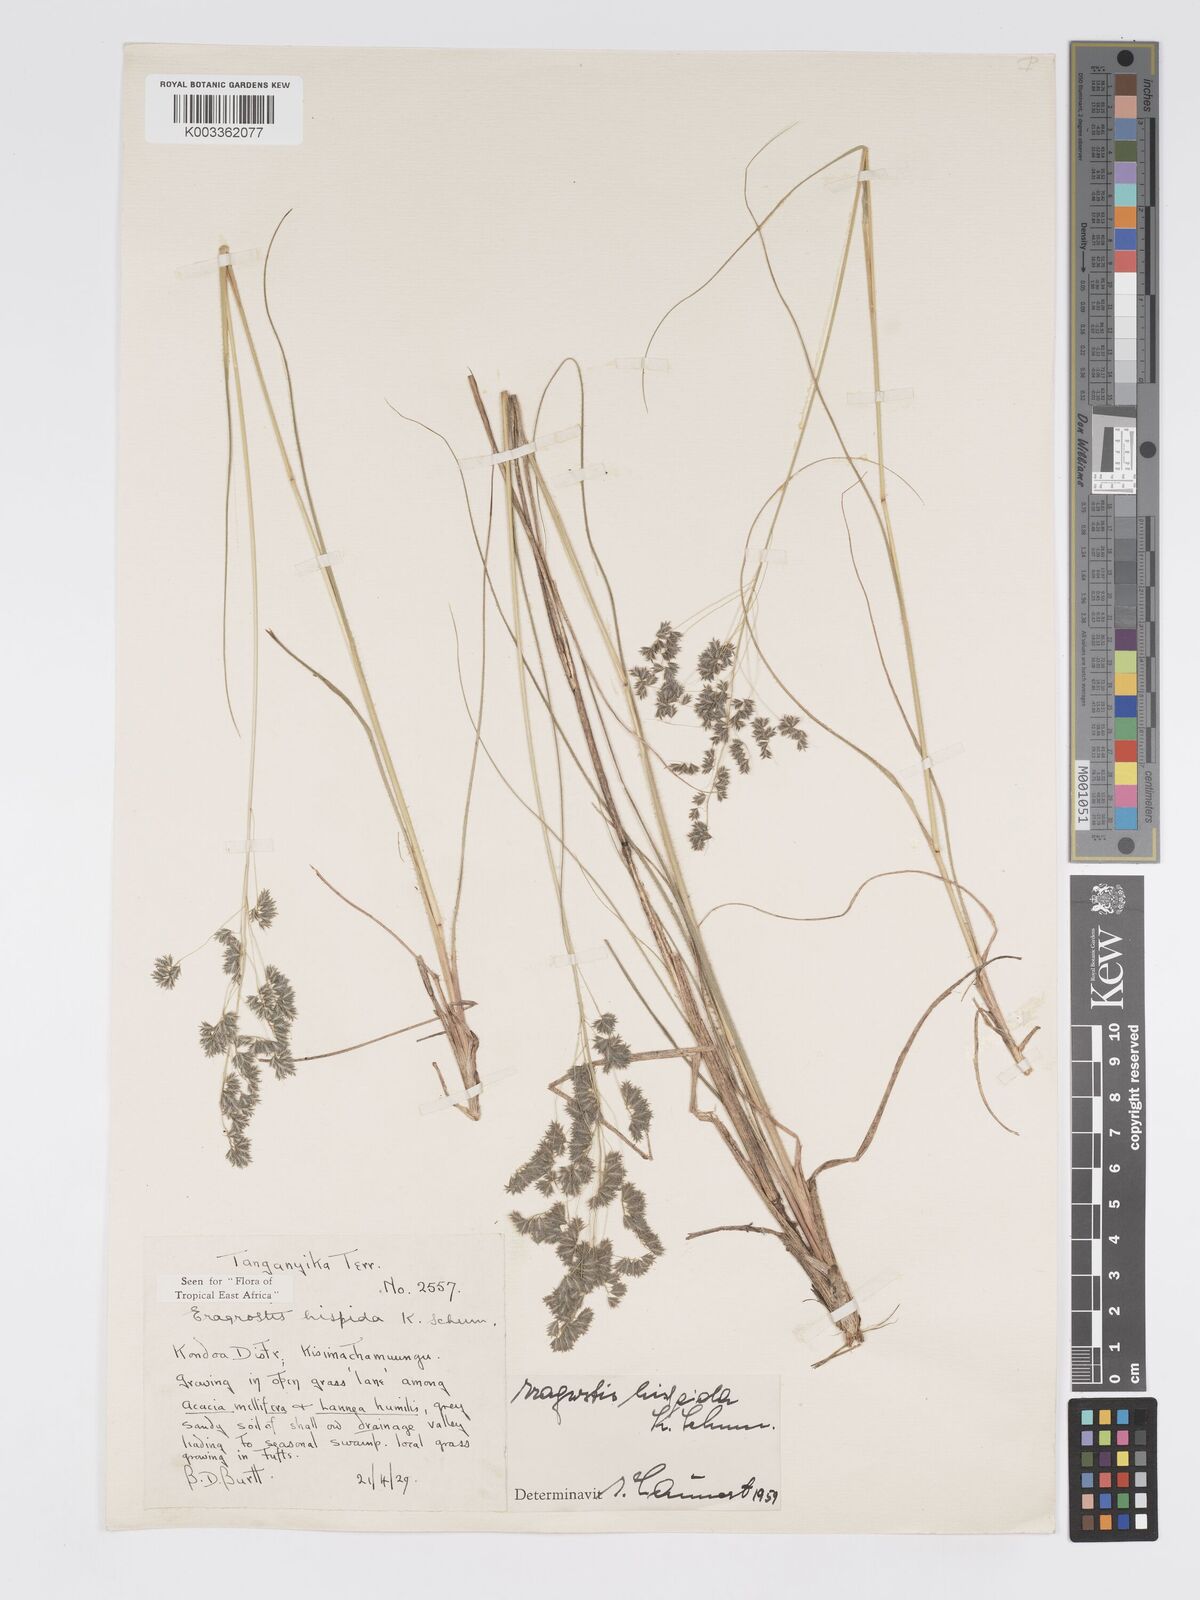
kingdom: Plantae
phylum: Tracheophyta
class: Liliopsida
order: Poales
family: Poaceae
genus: Eragrostis
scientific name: Eragrostis hispida
